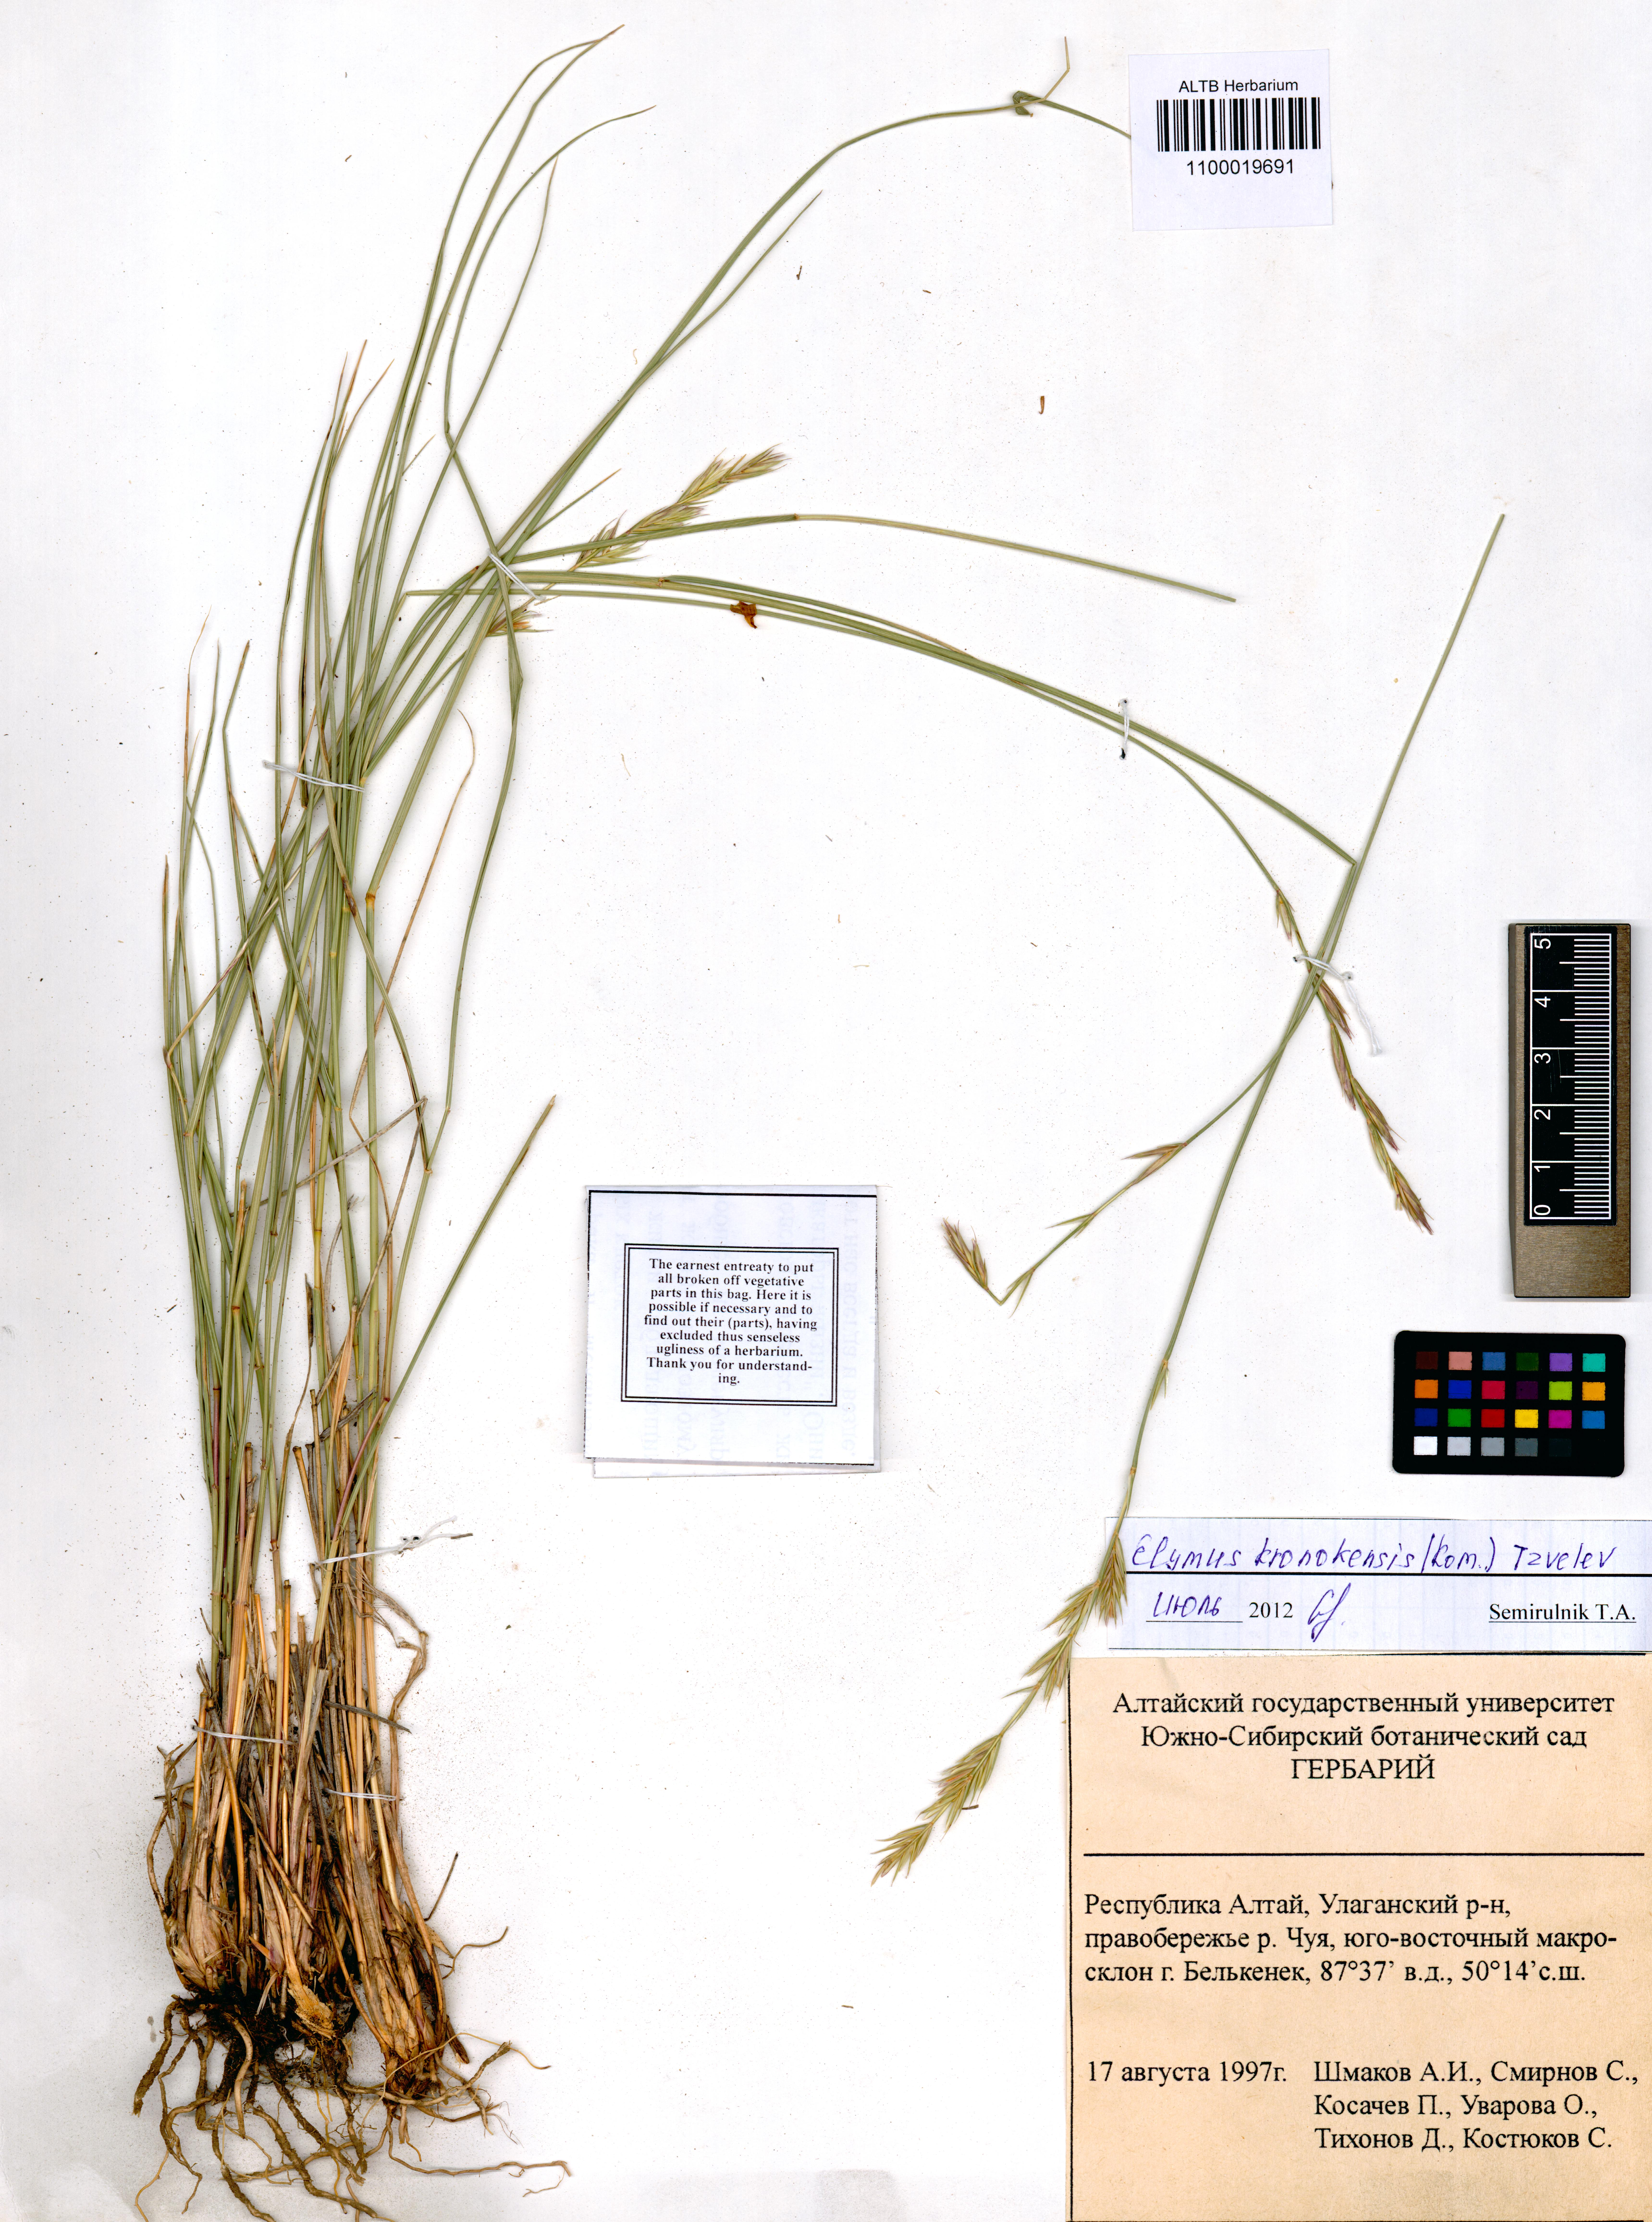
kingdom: Plantae
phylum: Tracheophyta
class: Liliopsida
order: Poales
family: Poaceae
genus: Elymus
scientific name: Elymus macrourus
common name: Northern wheatgrass
